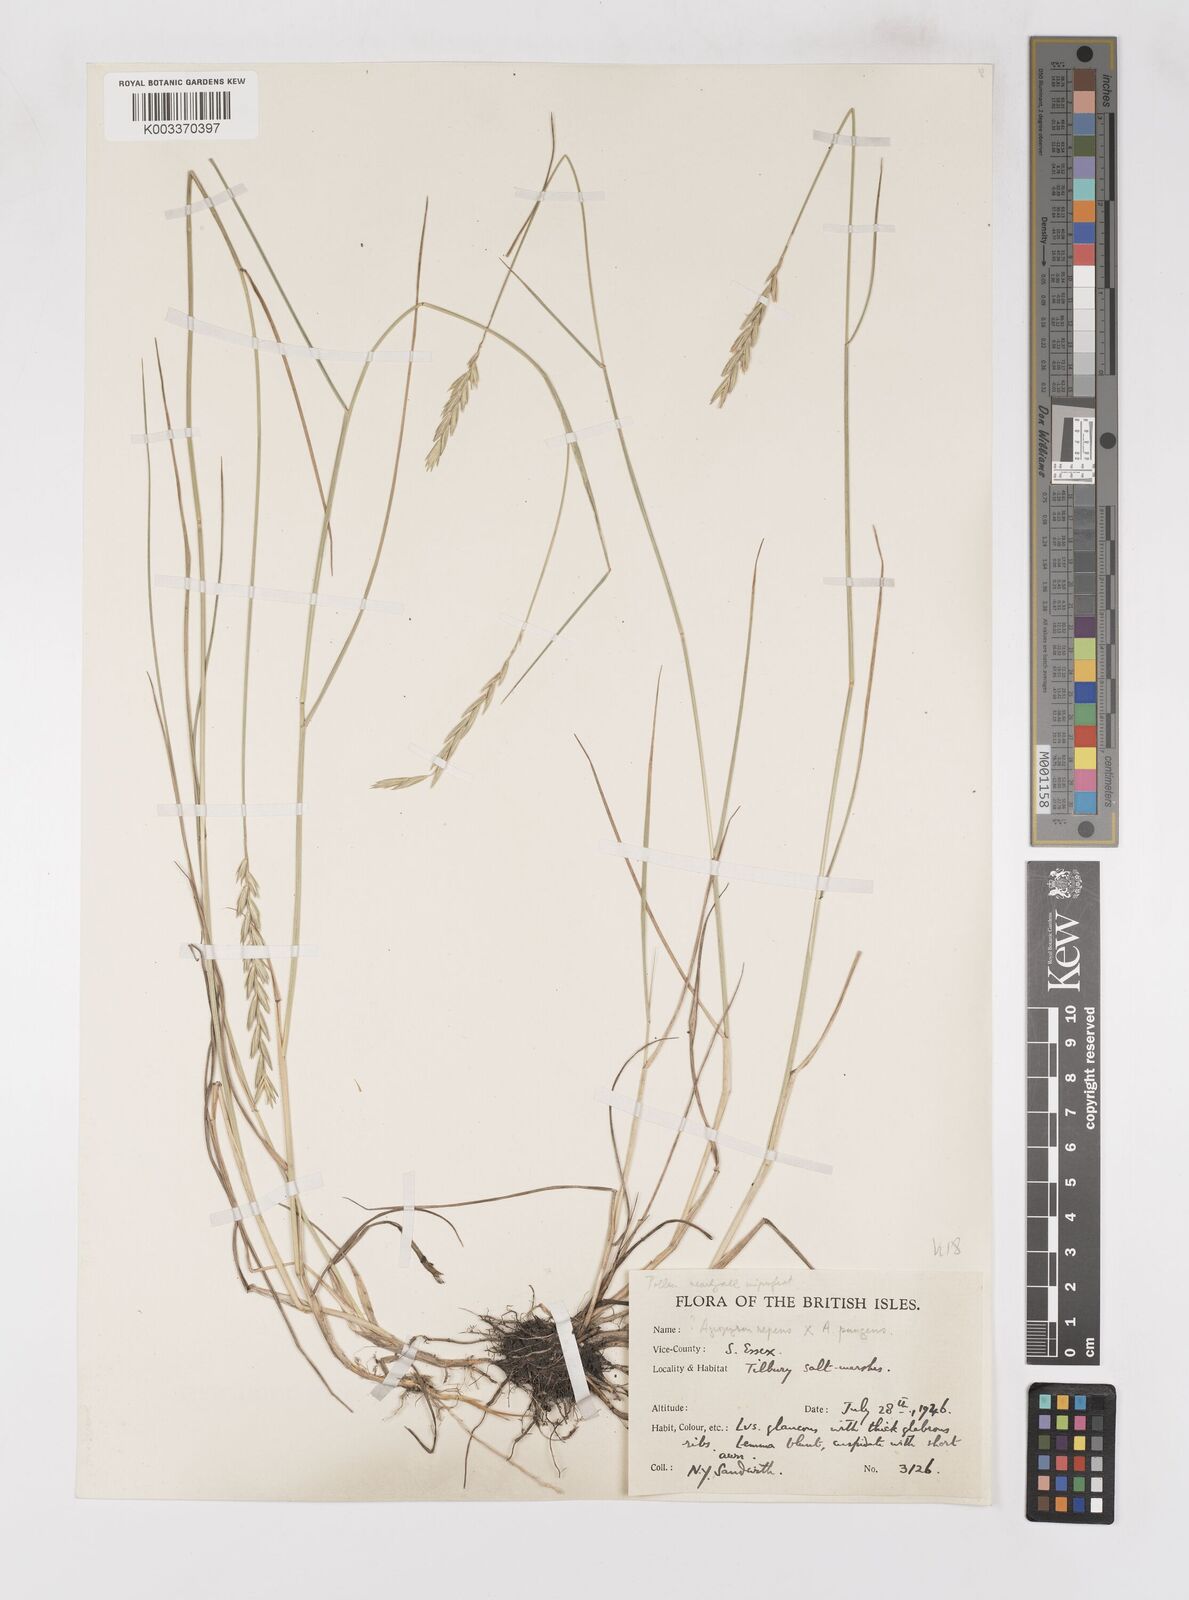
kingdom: Plantae
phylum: Tracheophyta
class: Liliopsida
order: Poales
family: Poaceae
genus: Elymus
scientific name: Elymus oliveri
